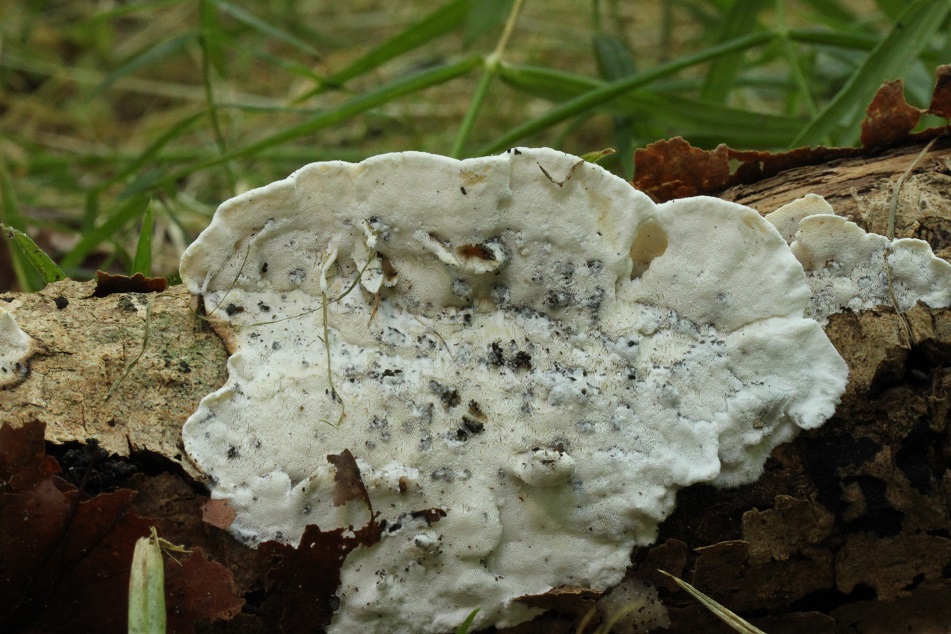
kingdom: Fungi
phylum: Basidiomycota
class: Agaricomycetes
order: Polyporales
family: Incrustoporiaceae
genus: Skeletocutis
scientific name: Skeletocutis nemoralis
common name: stor krystalporesvamp
